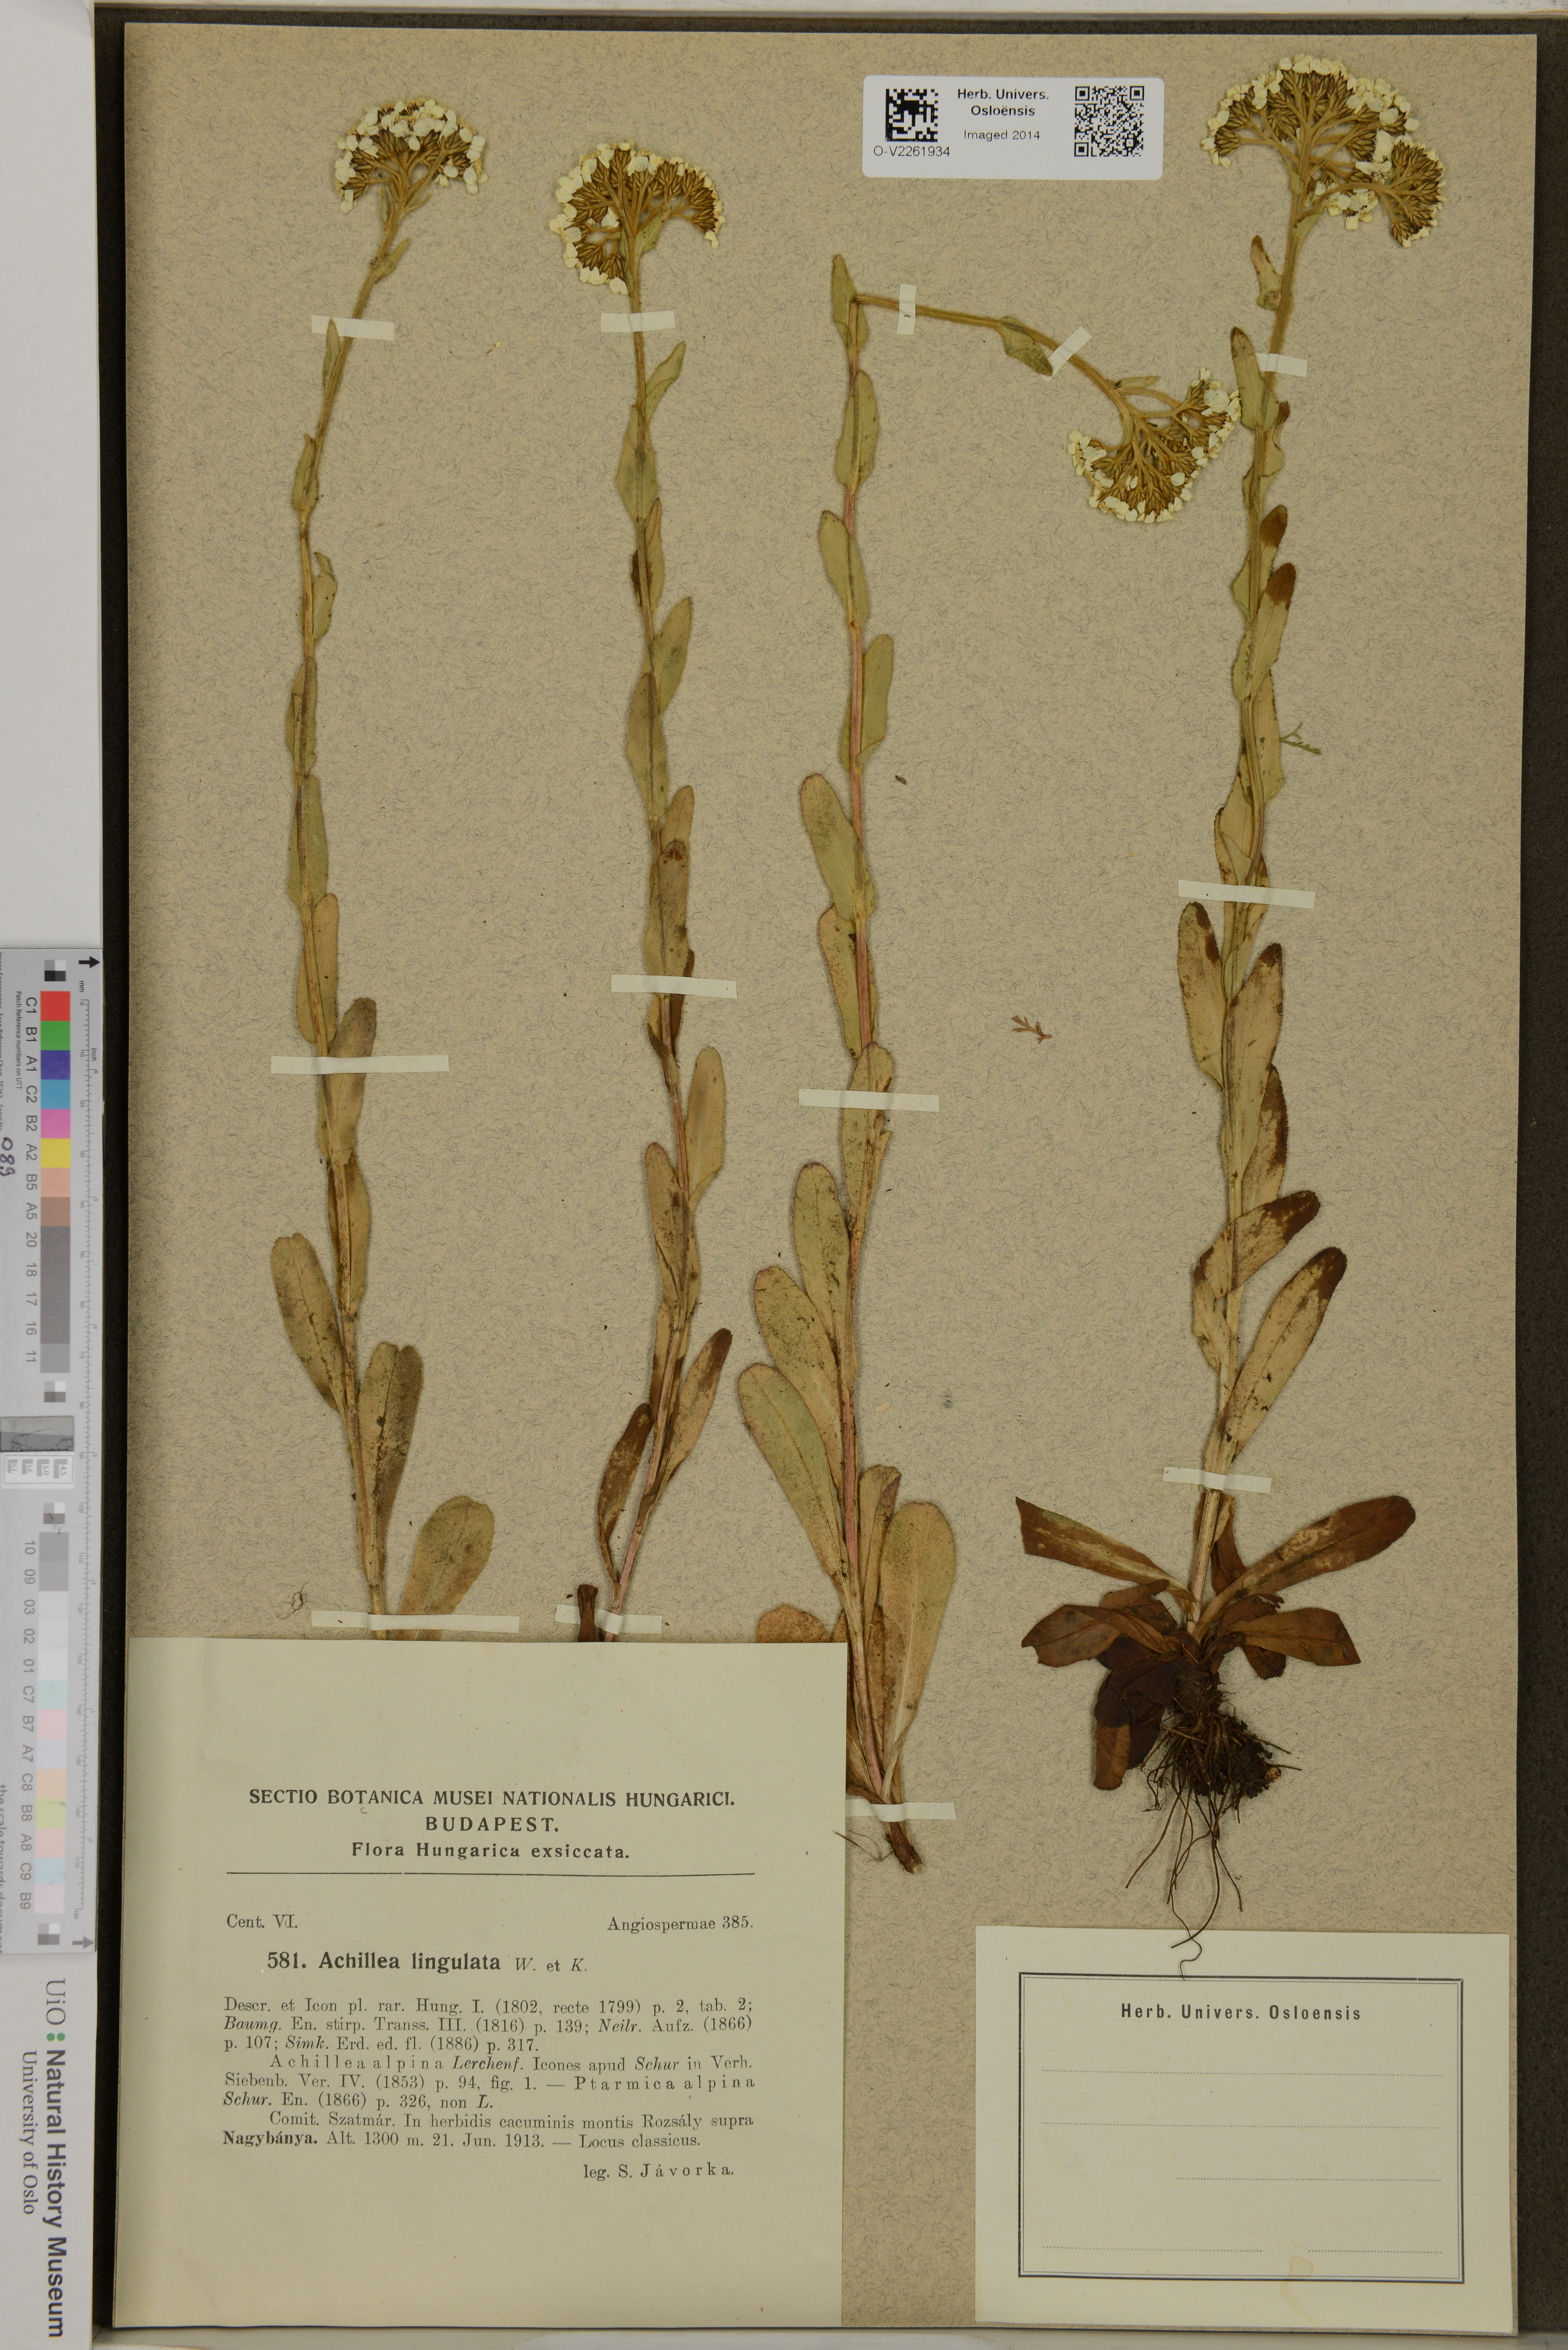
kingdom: Plantae
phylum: Tracheophyta
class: Magnoliopsida
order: Asterales
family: Asteraceae
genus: Achillea
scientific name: Achillea lingulata
